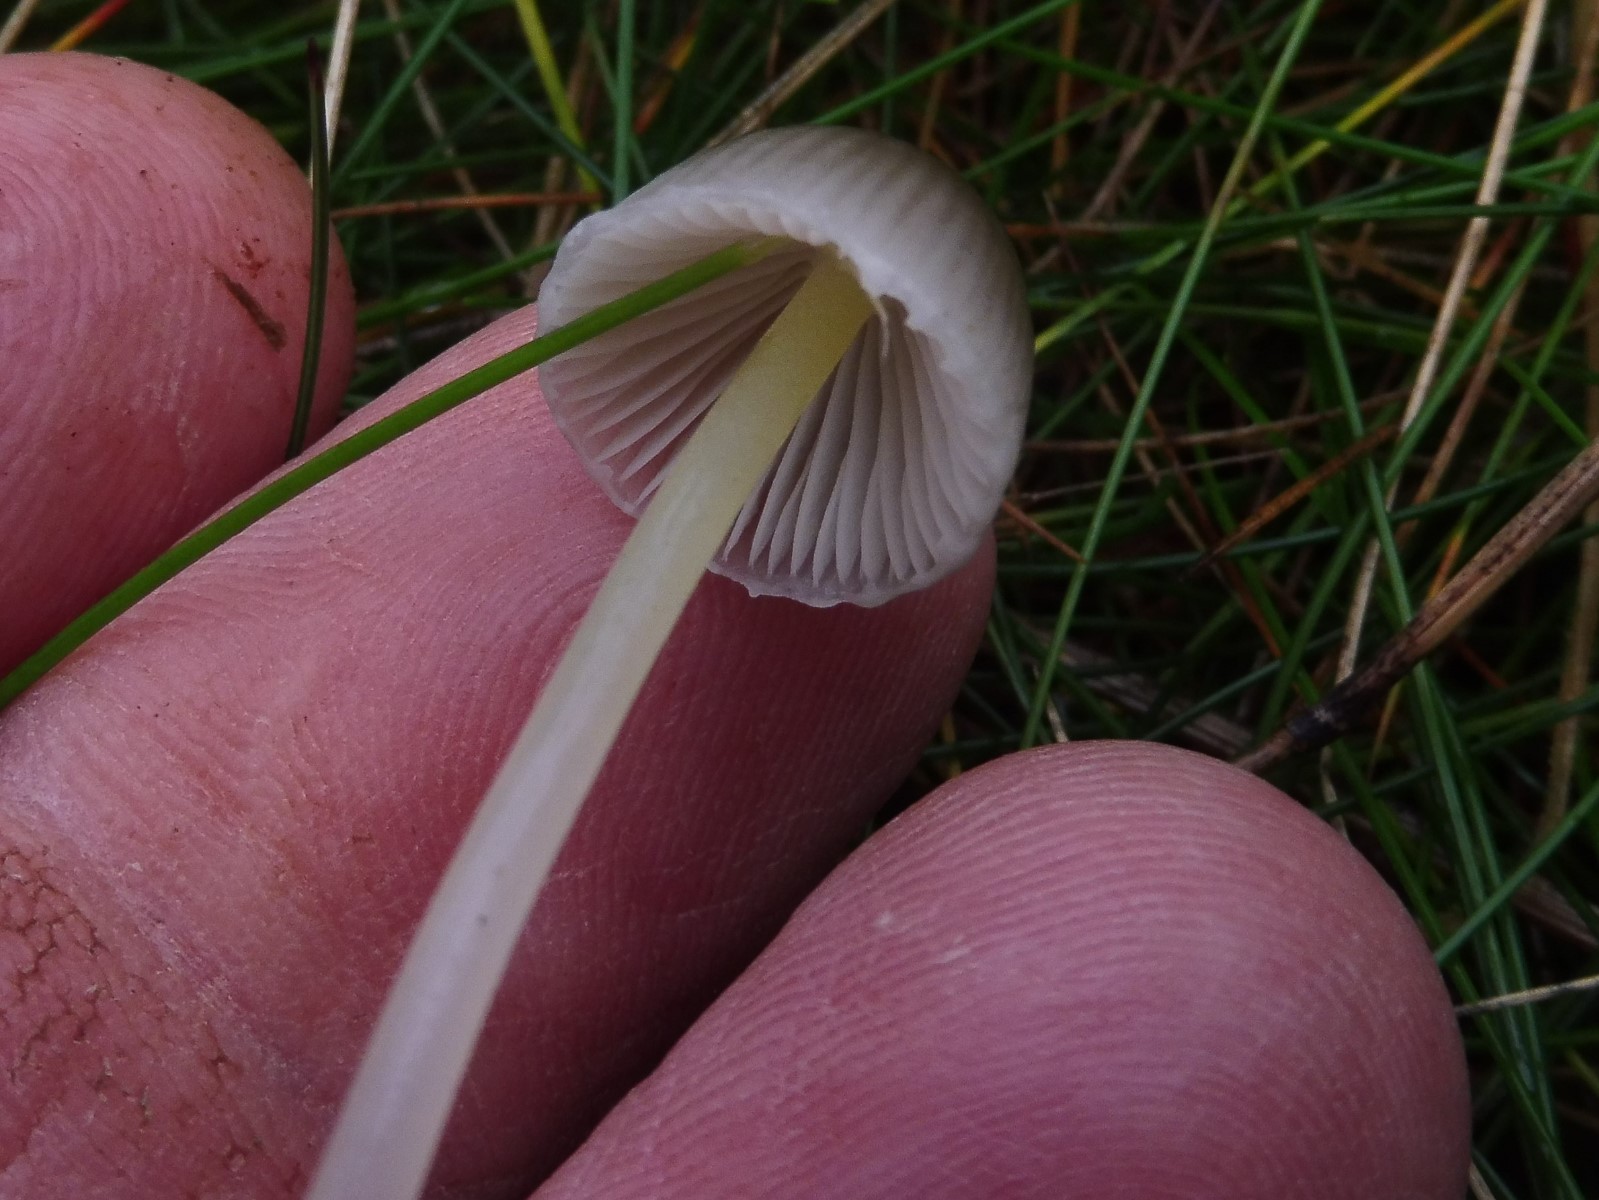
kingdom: Fungi
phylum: Basidiomycota
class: Agaricomycetes
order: Agaricales
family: Mycenaceae
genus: Mycena
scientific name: Mycena epipterygia
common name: gulstokket huesvamp
